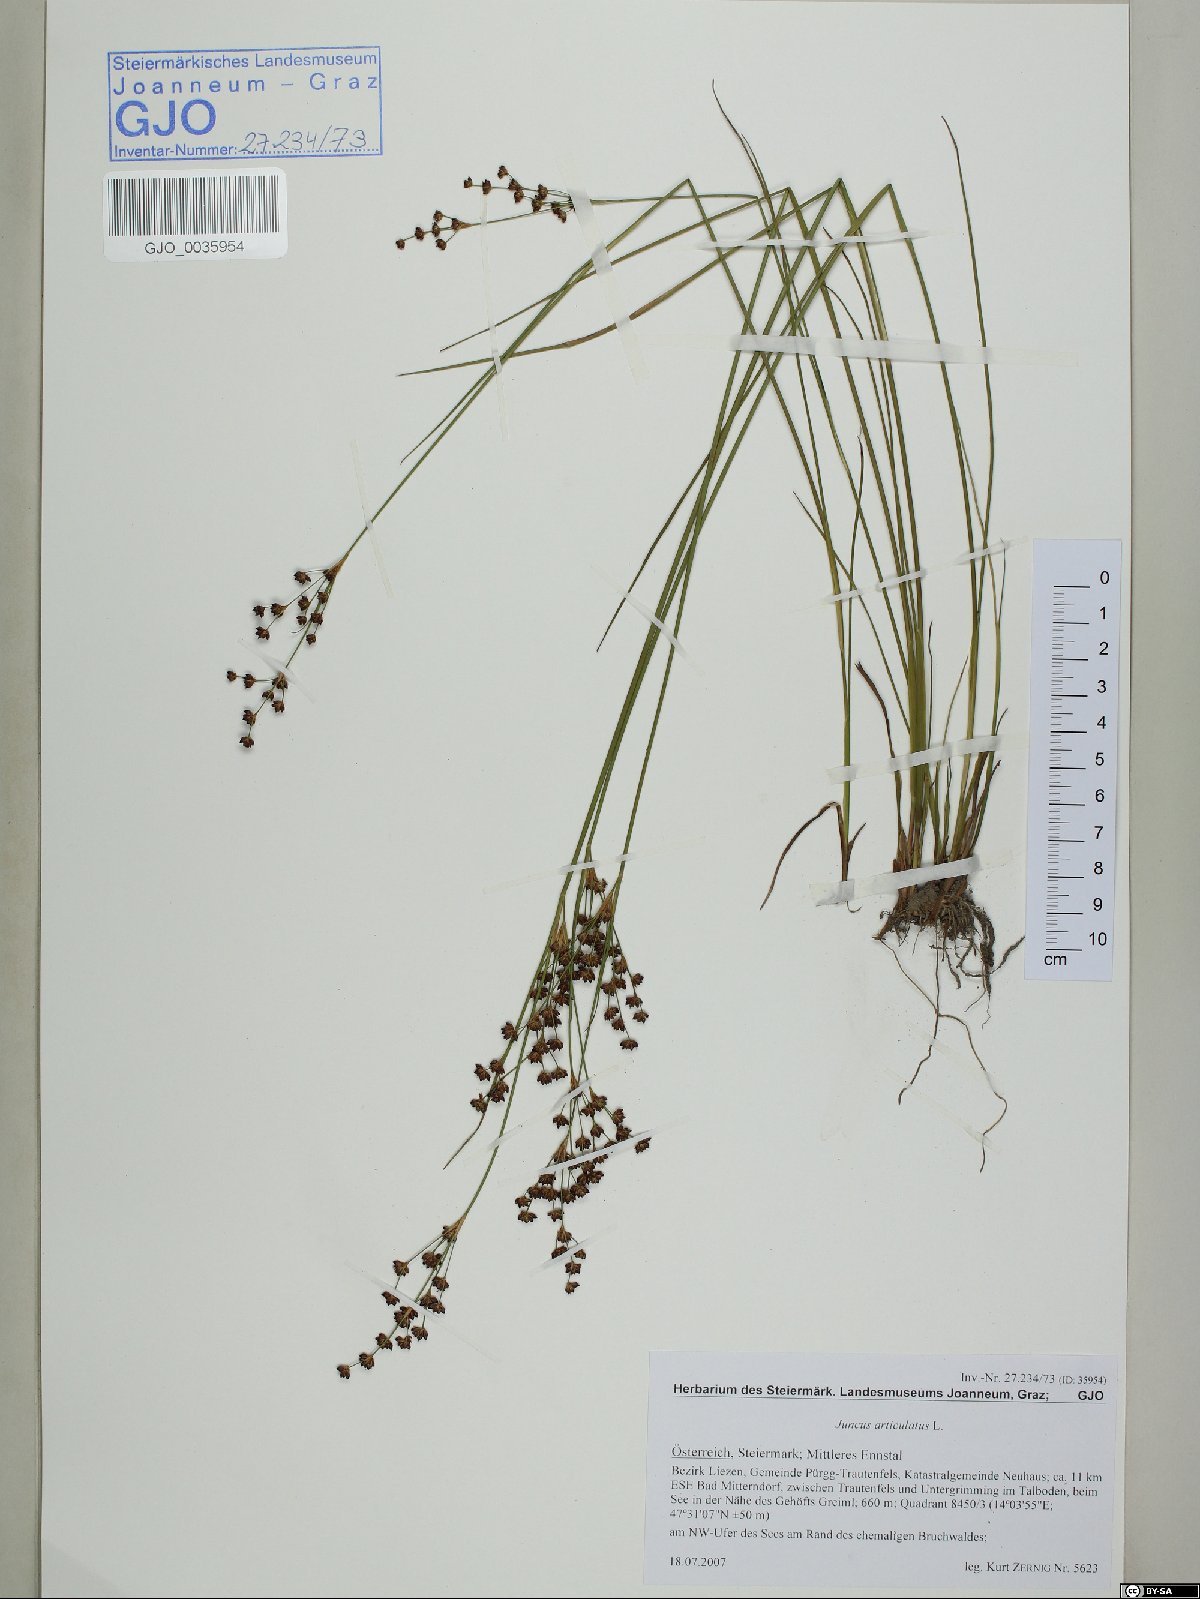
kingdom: Plantae
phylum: Tracheophyta
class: Liliopsida
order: Poales
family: Juncaceae
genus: Juncus
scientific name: Juncus articulatus
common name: Jointed rush
